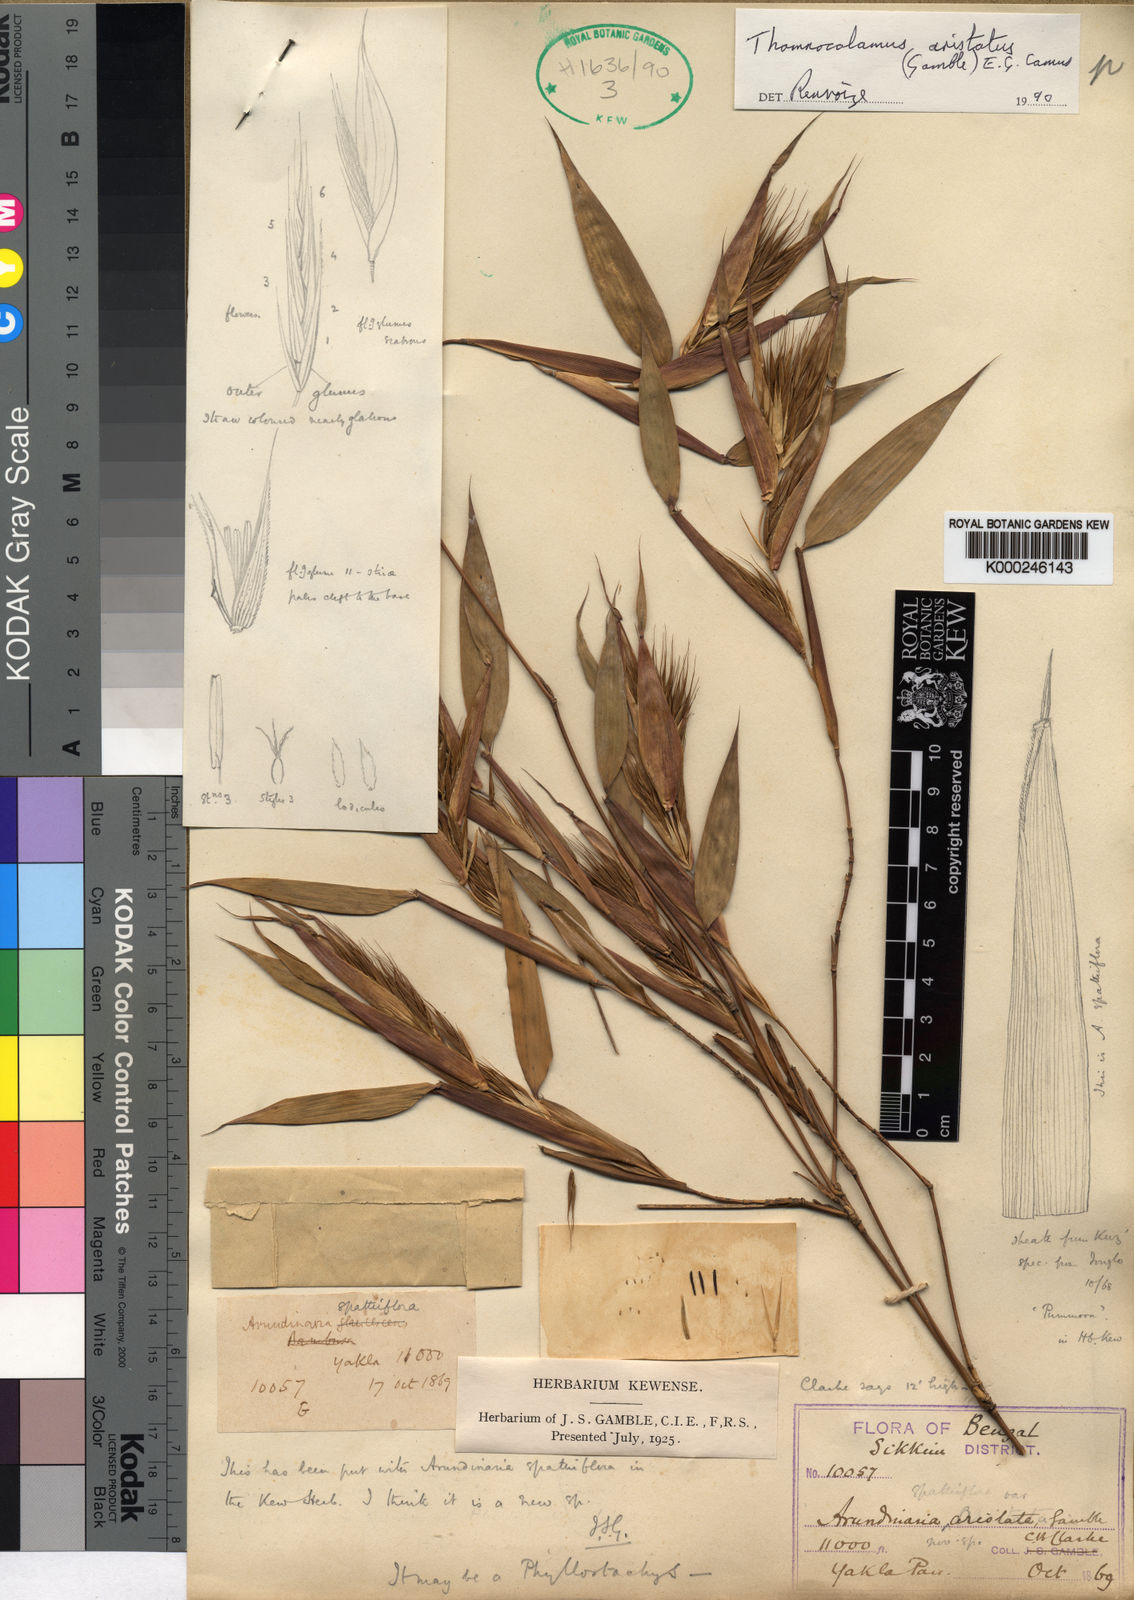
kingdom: Plantae
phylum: Tracheophyta
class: Liliopsida
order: Poales
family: Poaceae
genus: Thamnocalamus
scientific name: Thamnocalamus chigar
